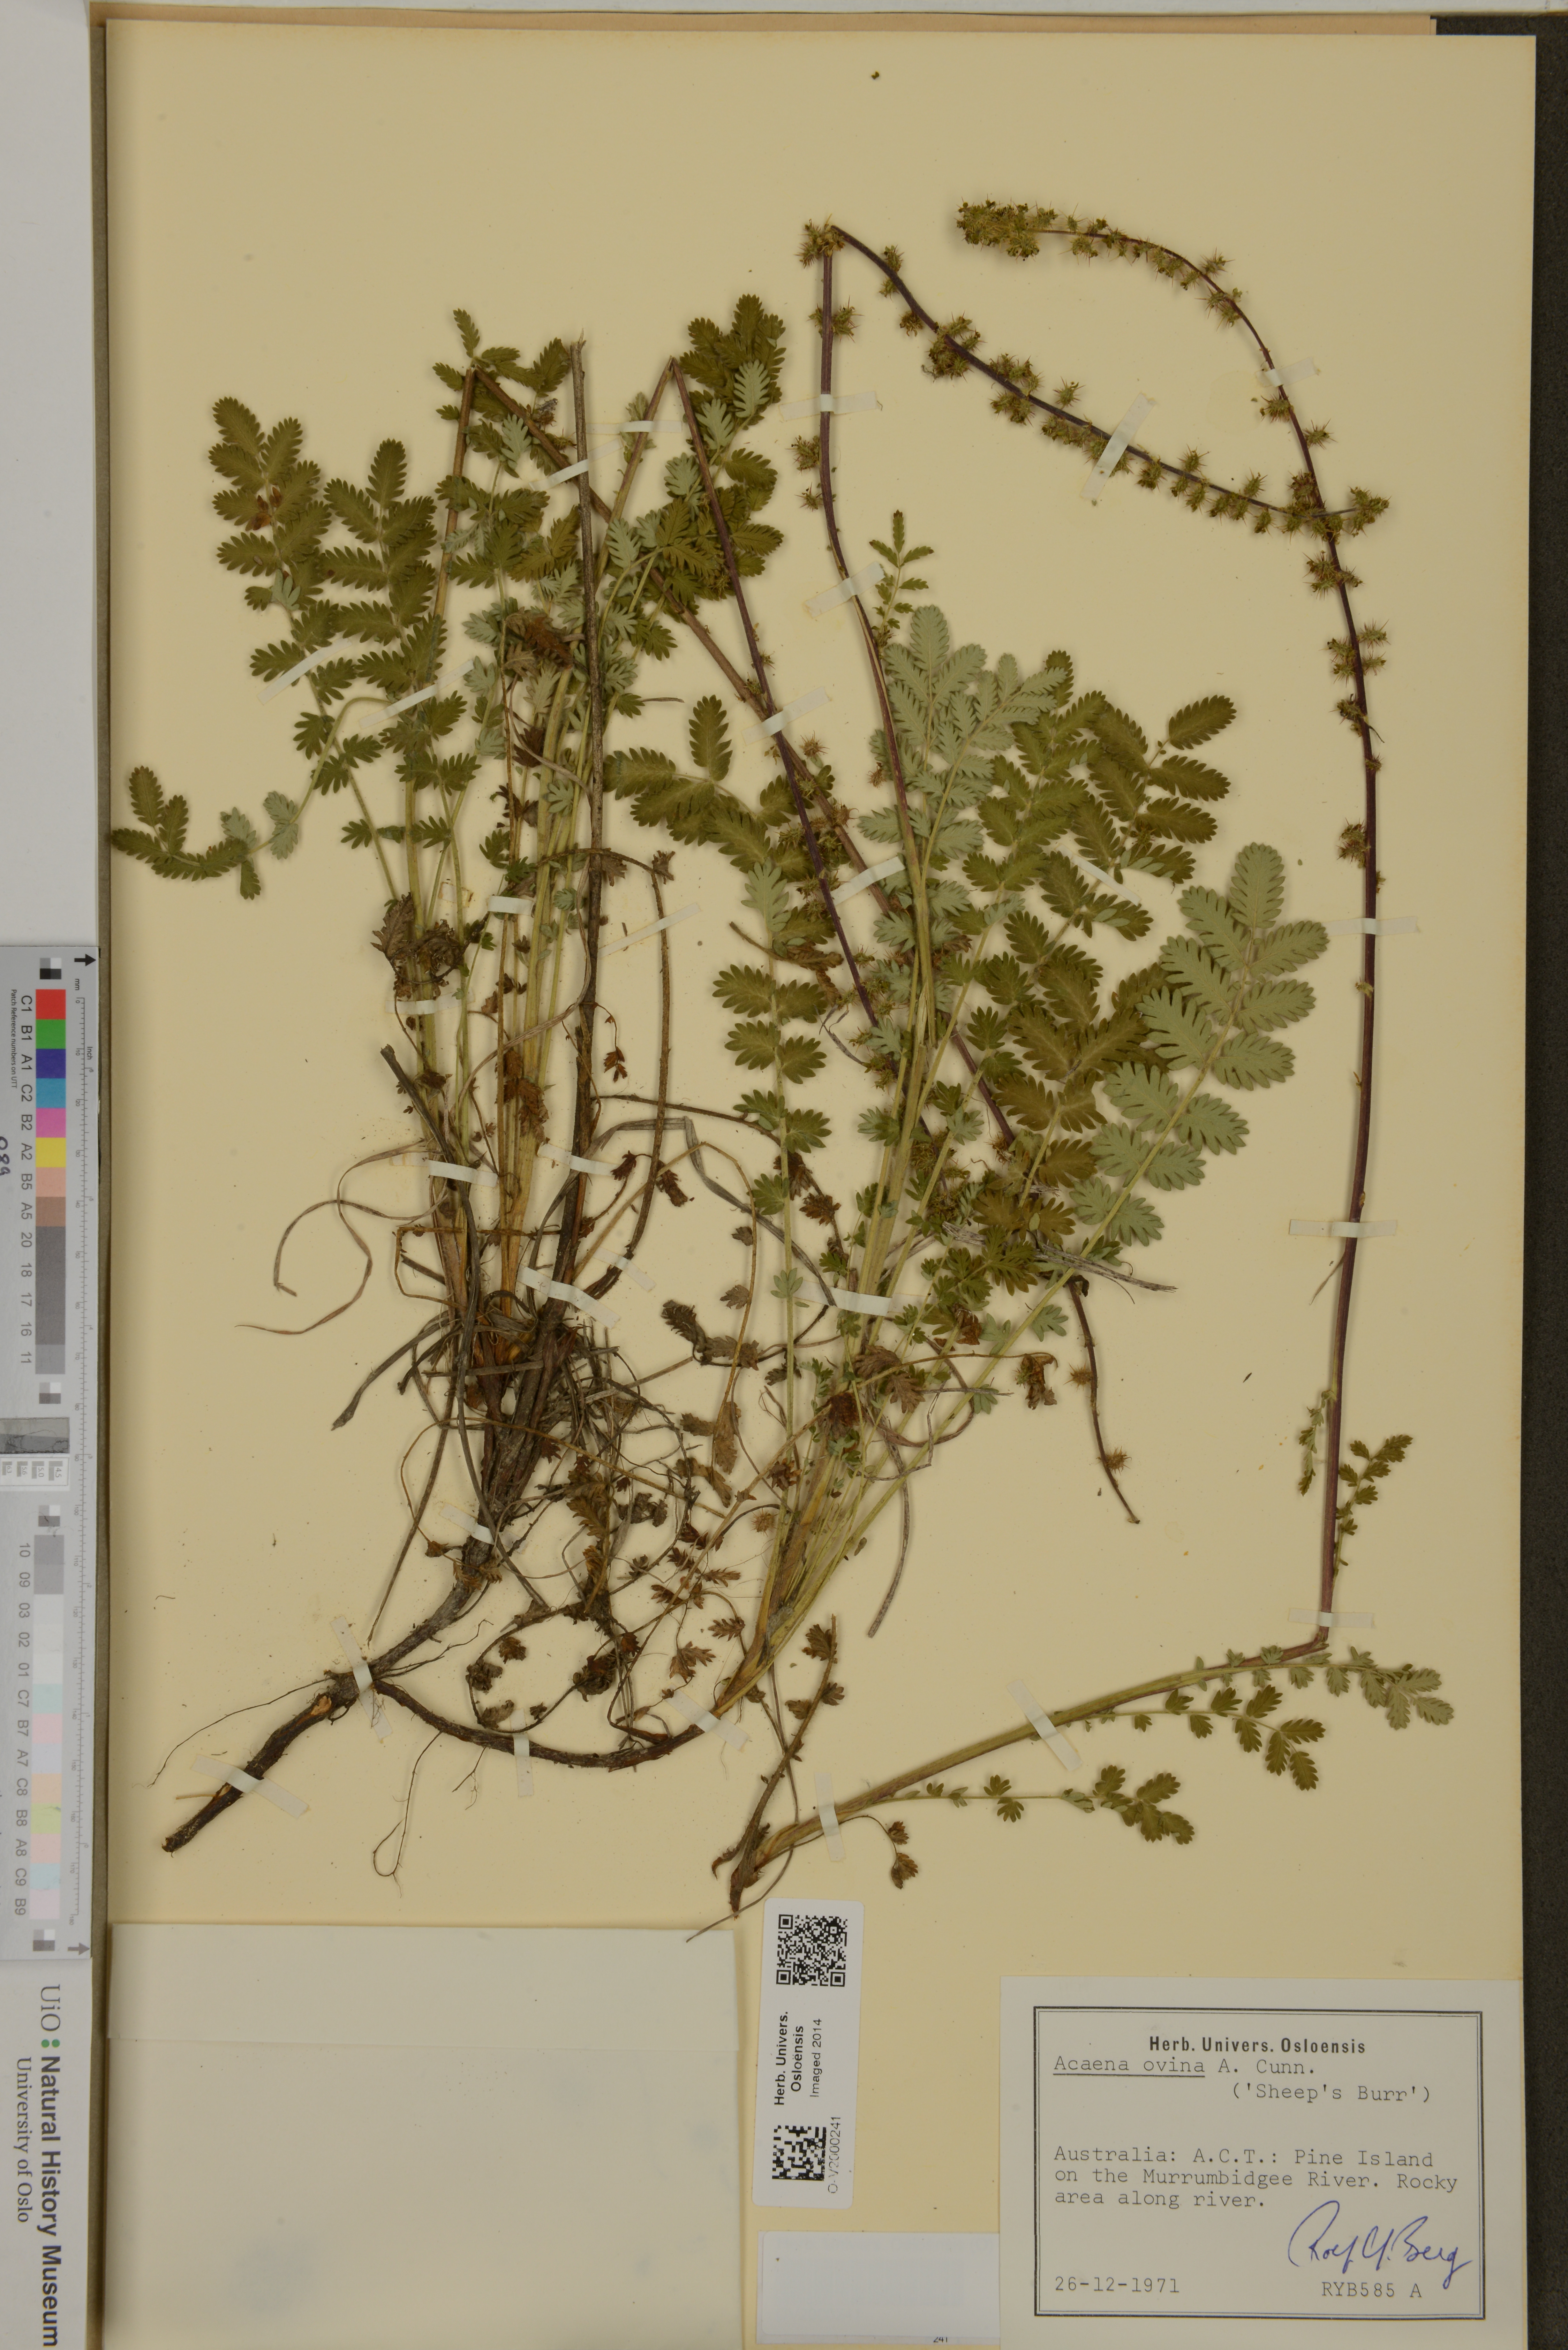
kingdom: Plantae
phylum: Tracheophyta
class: Magnoliopsida
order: Rosales
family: Rosaceae
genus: Acaena
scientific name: Acaena ovina
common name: Hairy sheepbur
